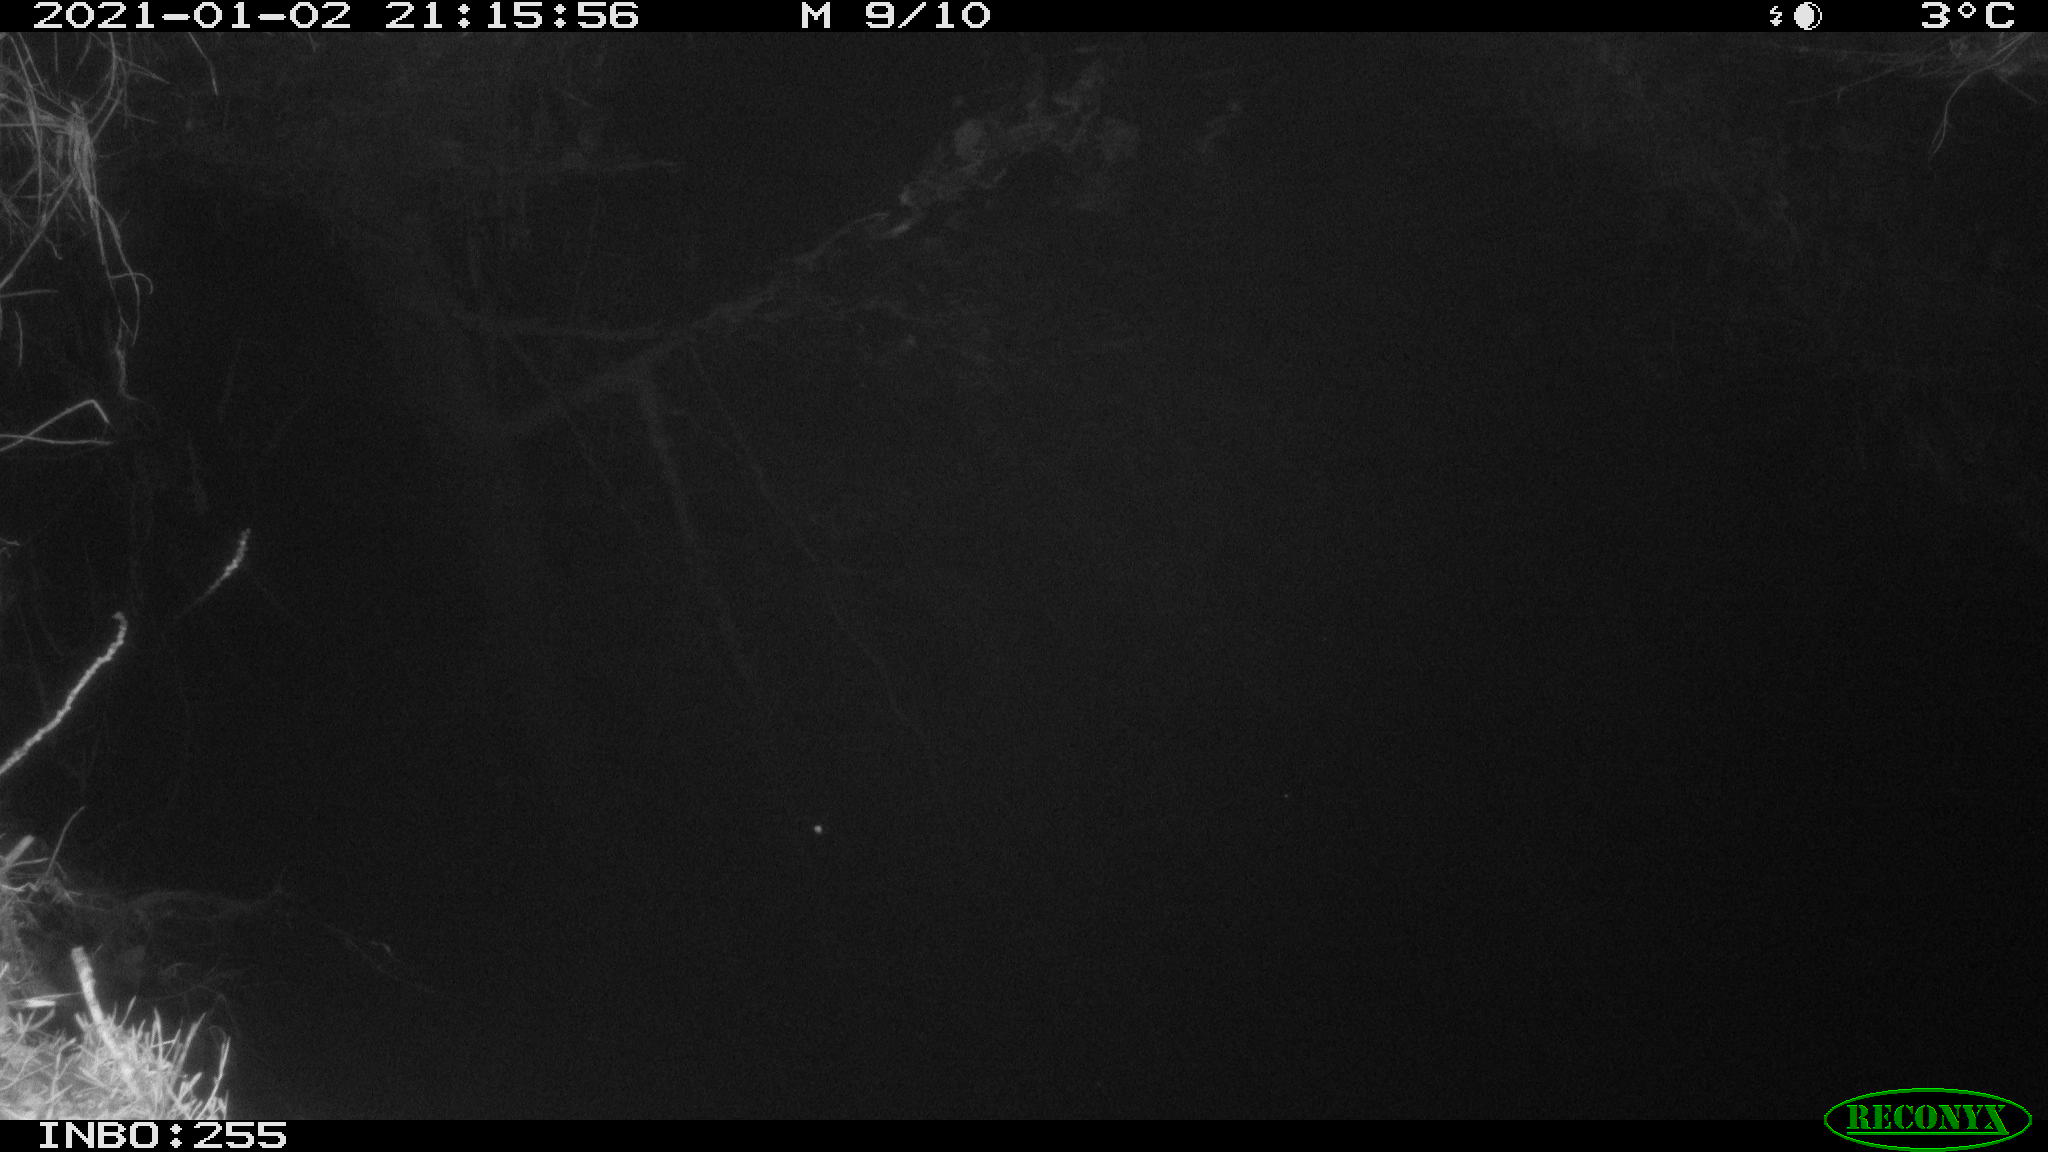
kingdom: Animalia
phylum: Chordata
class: Mammalia
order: Rodentia
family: Muridae
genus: Rattus
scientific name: Rattus norvegicus
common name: Brown rat
